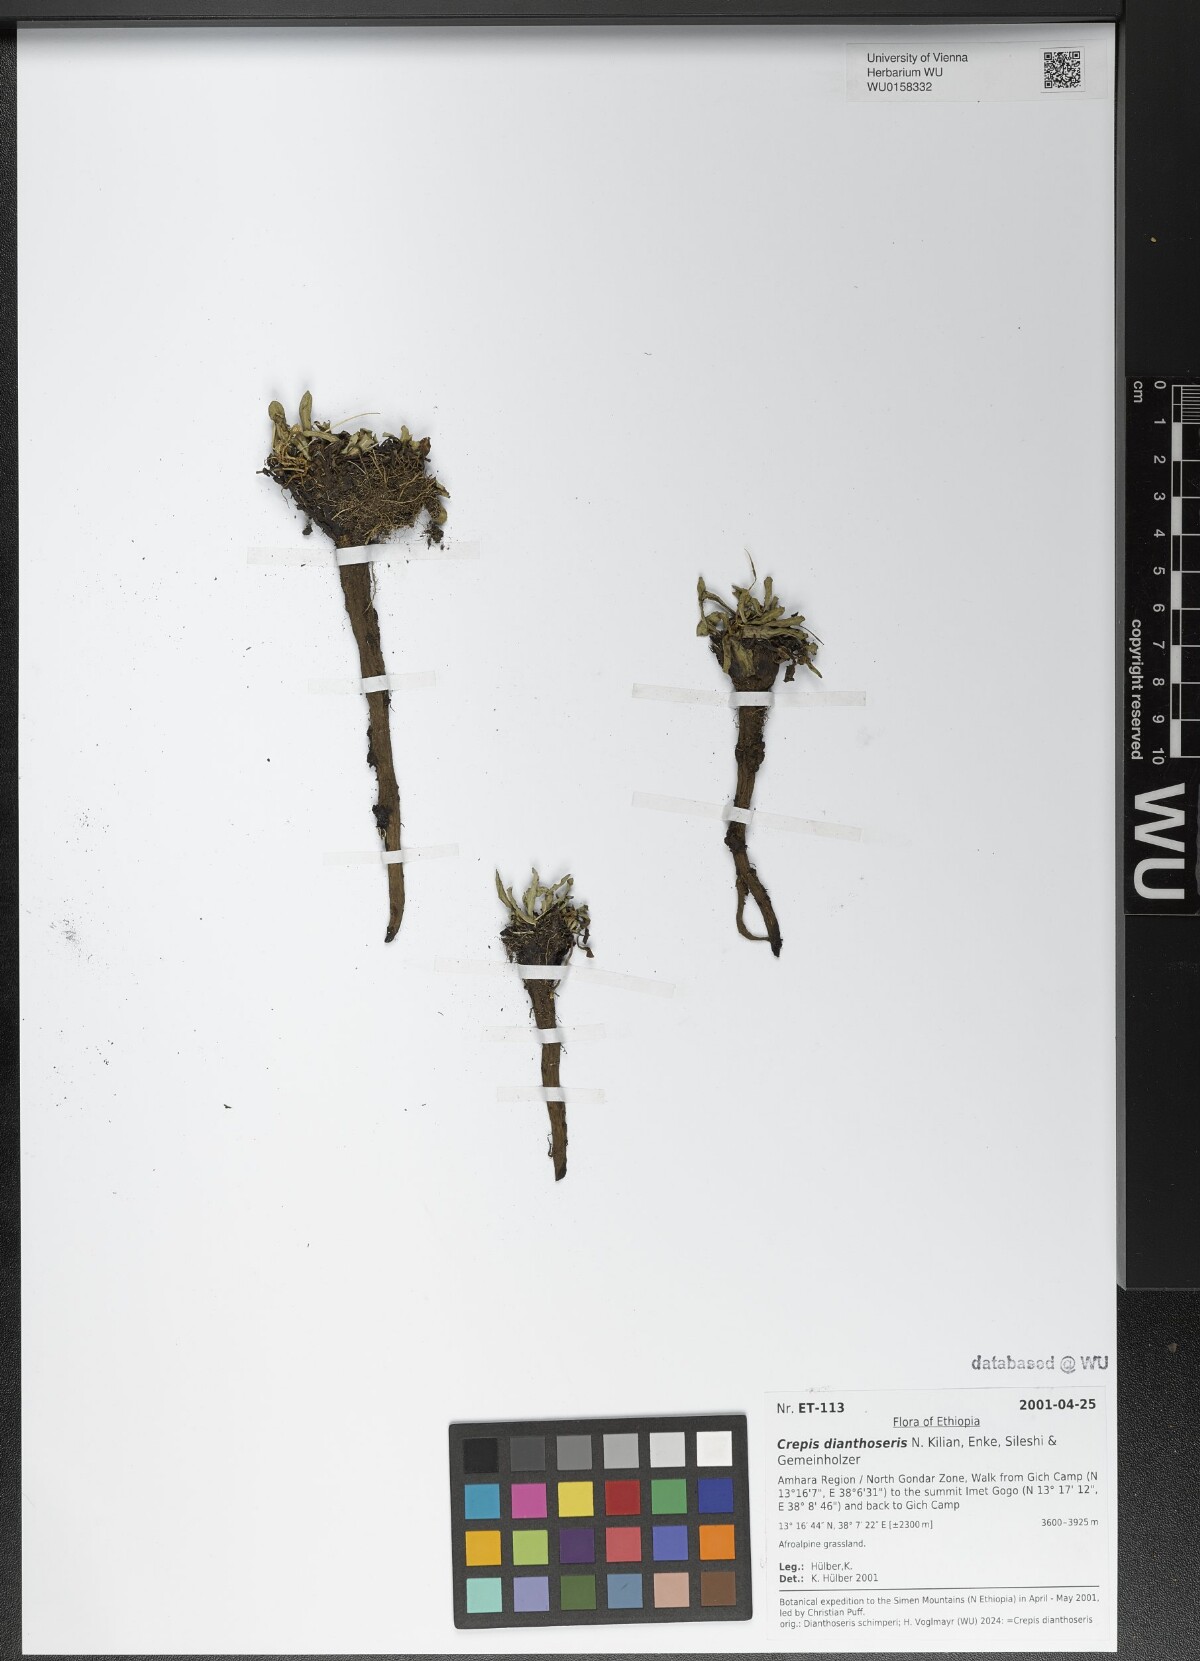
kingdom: Plantae
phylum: Tracheophyta
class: Magnoliopsida
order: Asterales
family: Asteraceae
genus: Crepis
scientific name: Crepis dianthoseris
